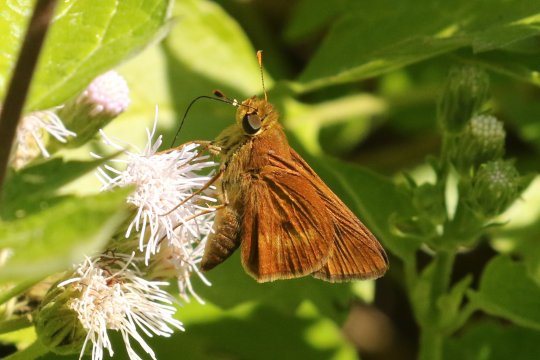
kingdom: Animalia
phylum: Arthropoda
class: Insecta
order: Lepidoptera
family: Hesperiidae
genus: Wallengrenia
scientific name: Wallengrenia otho
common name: Southern Broken-Dash
